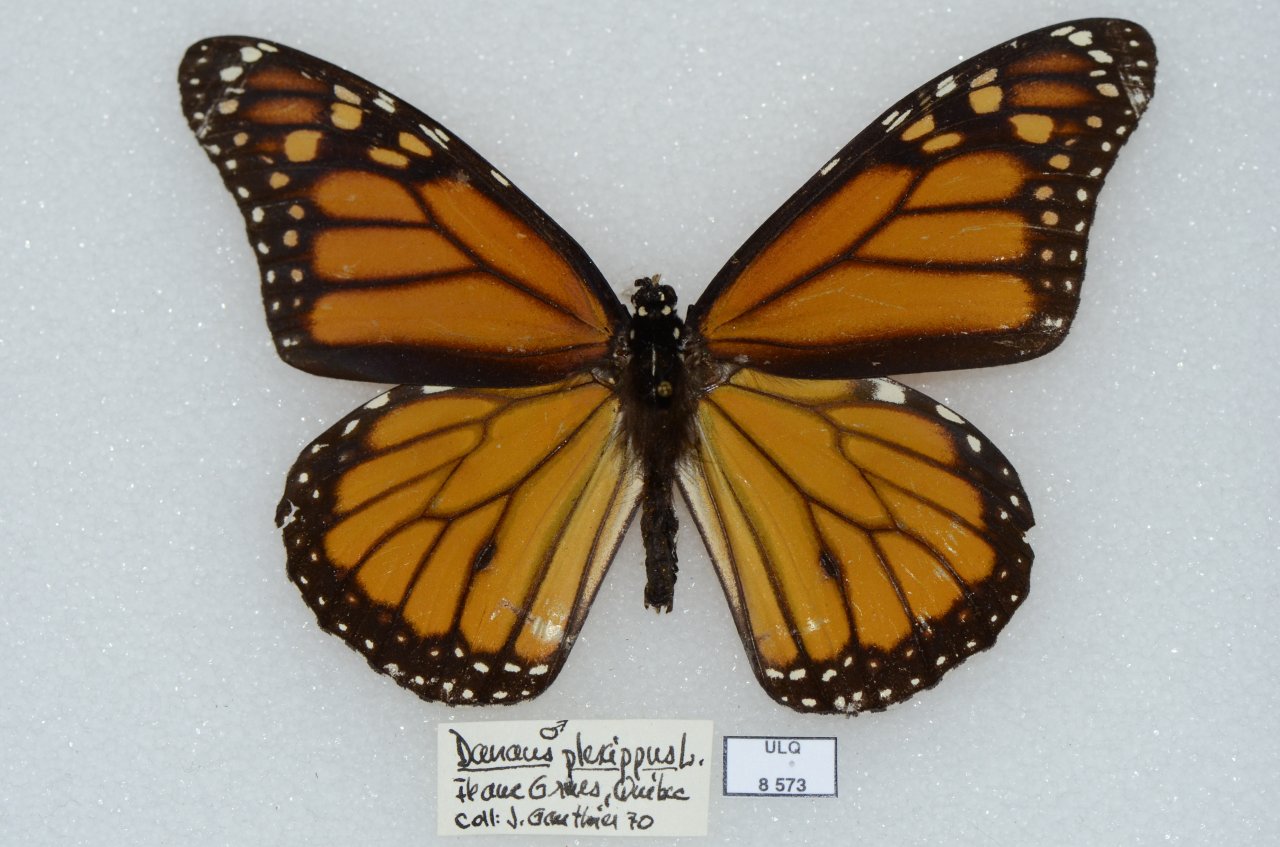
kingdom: Animalia
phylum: Arthropoda
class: Insecta
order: Lepidoptera
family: Nymphalidae
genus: Danaus
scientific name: Danaus plexippus
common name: Monarch
